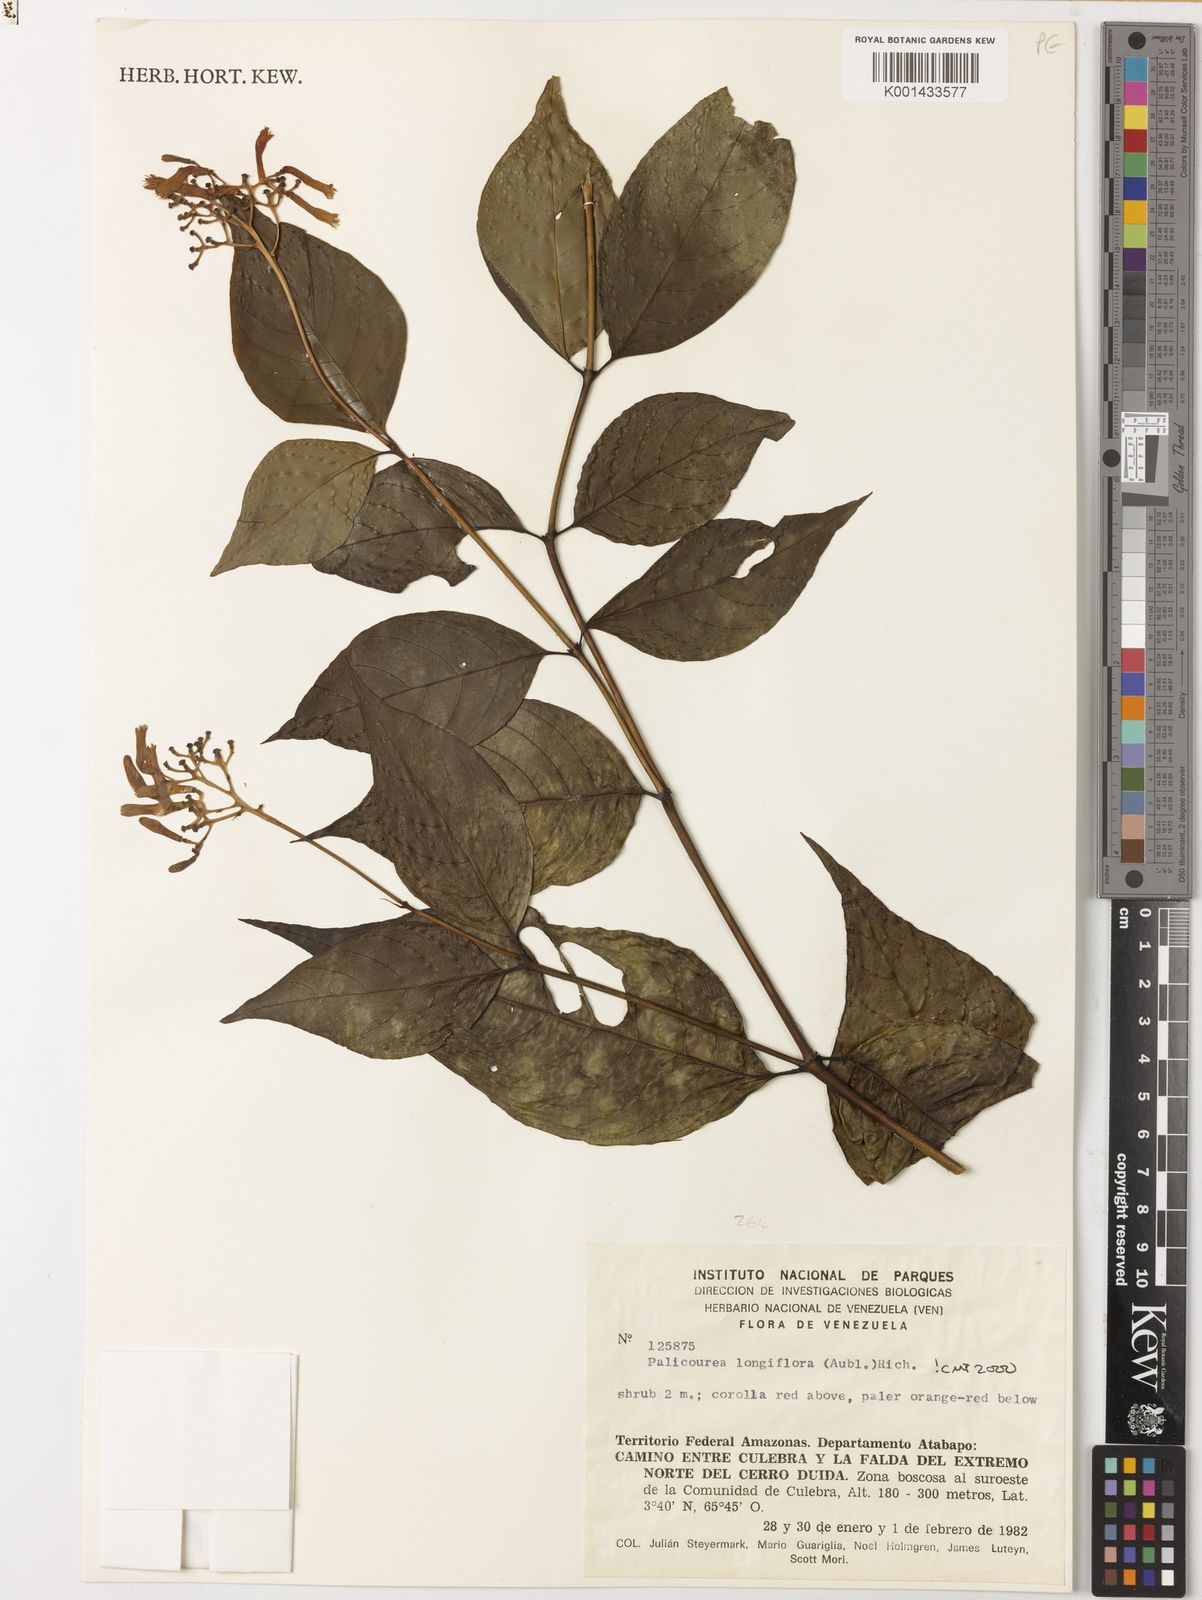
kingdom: Plantae
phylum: Tracheophyta
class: Magnoliopsida
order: Gentianales
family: Rubiaceae
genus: Palicourea
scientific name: Palicourea longiflora
